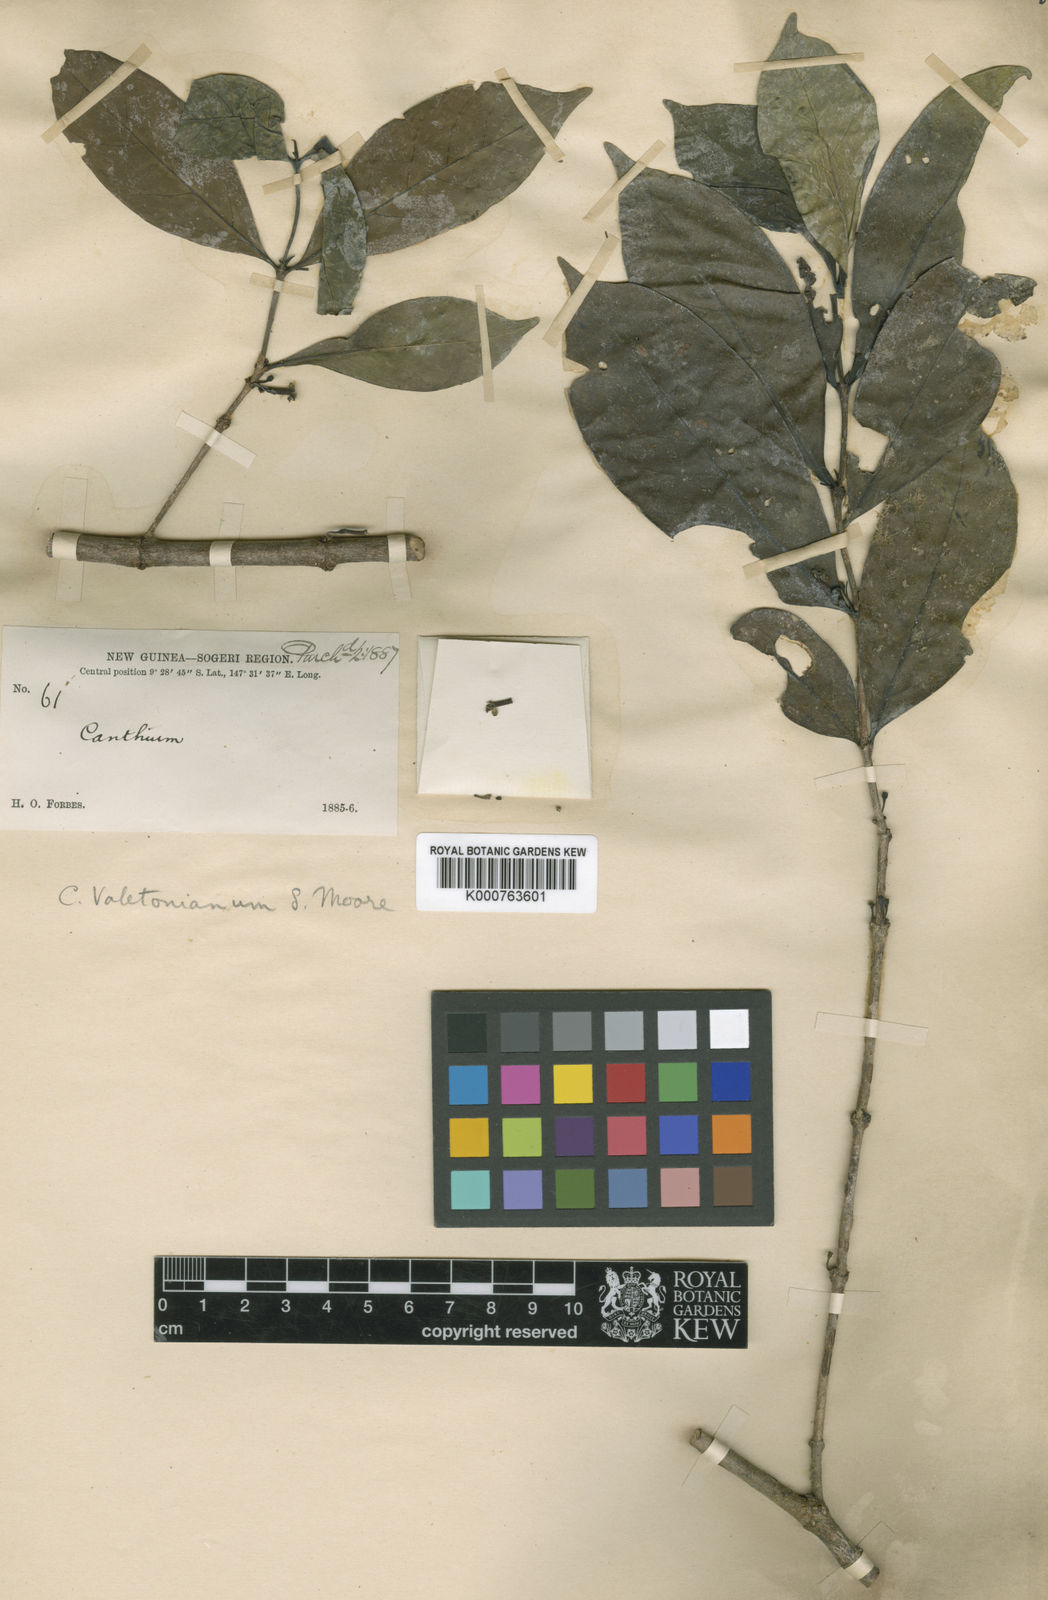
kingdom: Plantae
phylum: Tracheophyta
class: Magnoliopsida
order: Gentianales
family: Rubiaceae
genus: Cyclophyllum
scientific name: Cyclophyllum valetonianum
